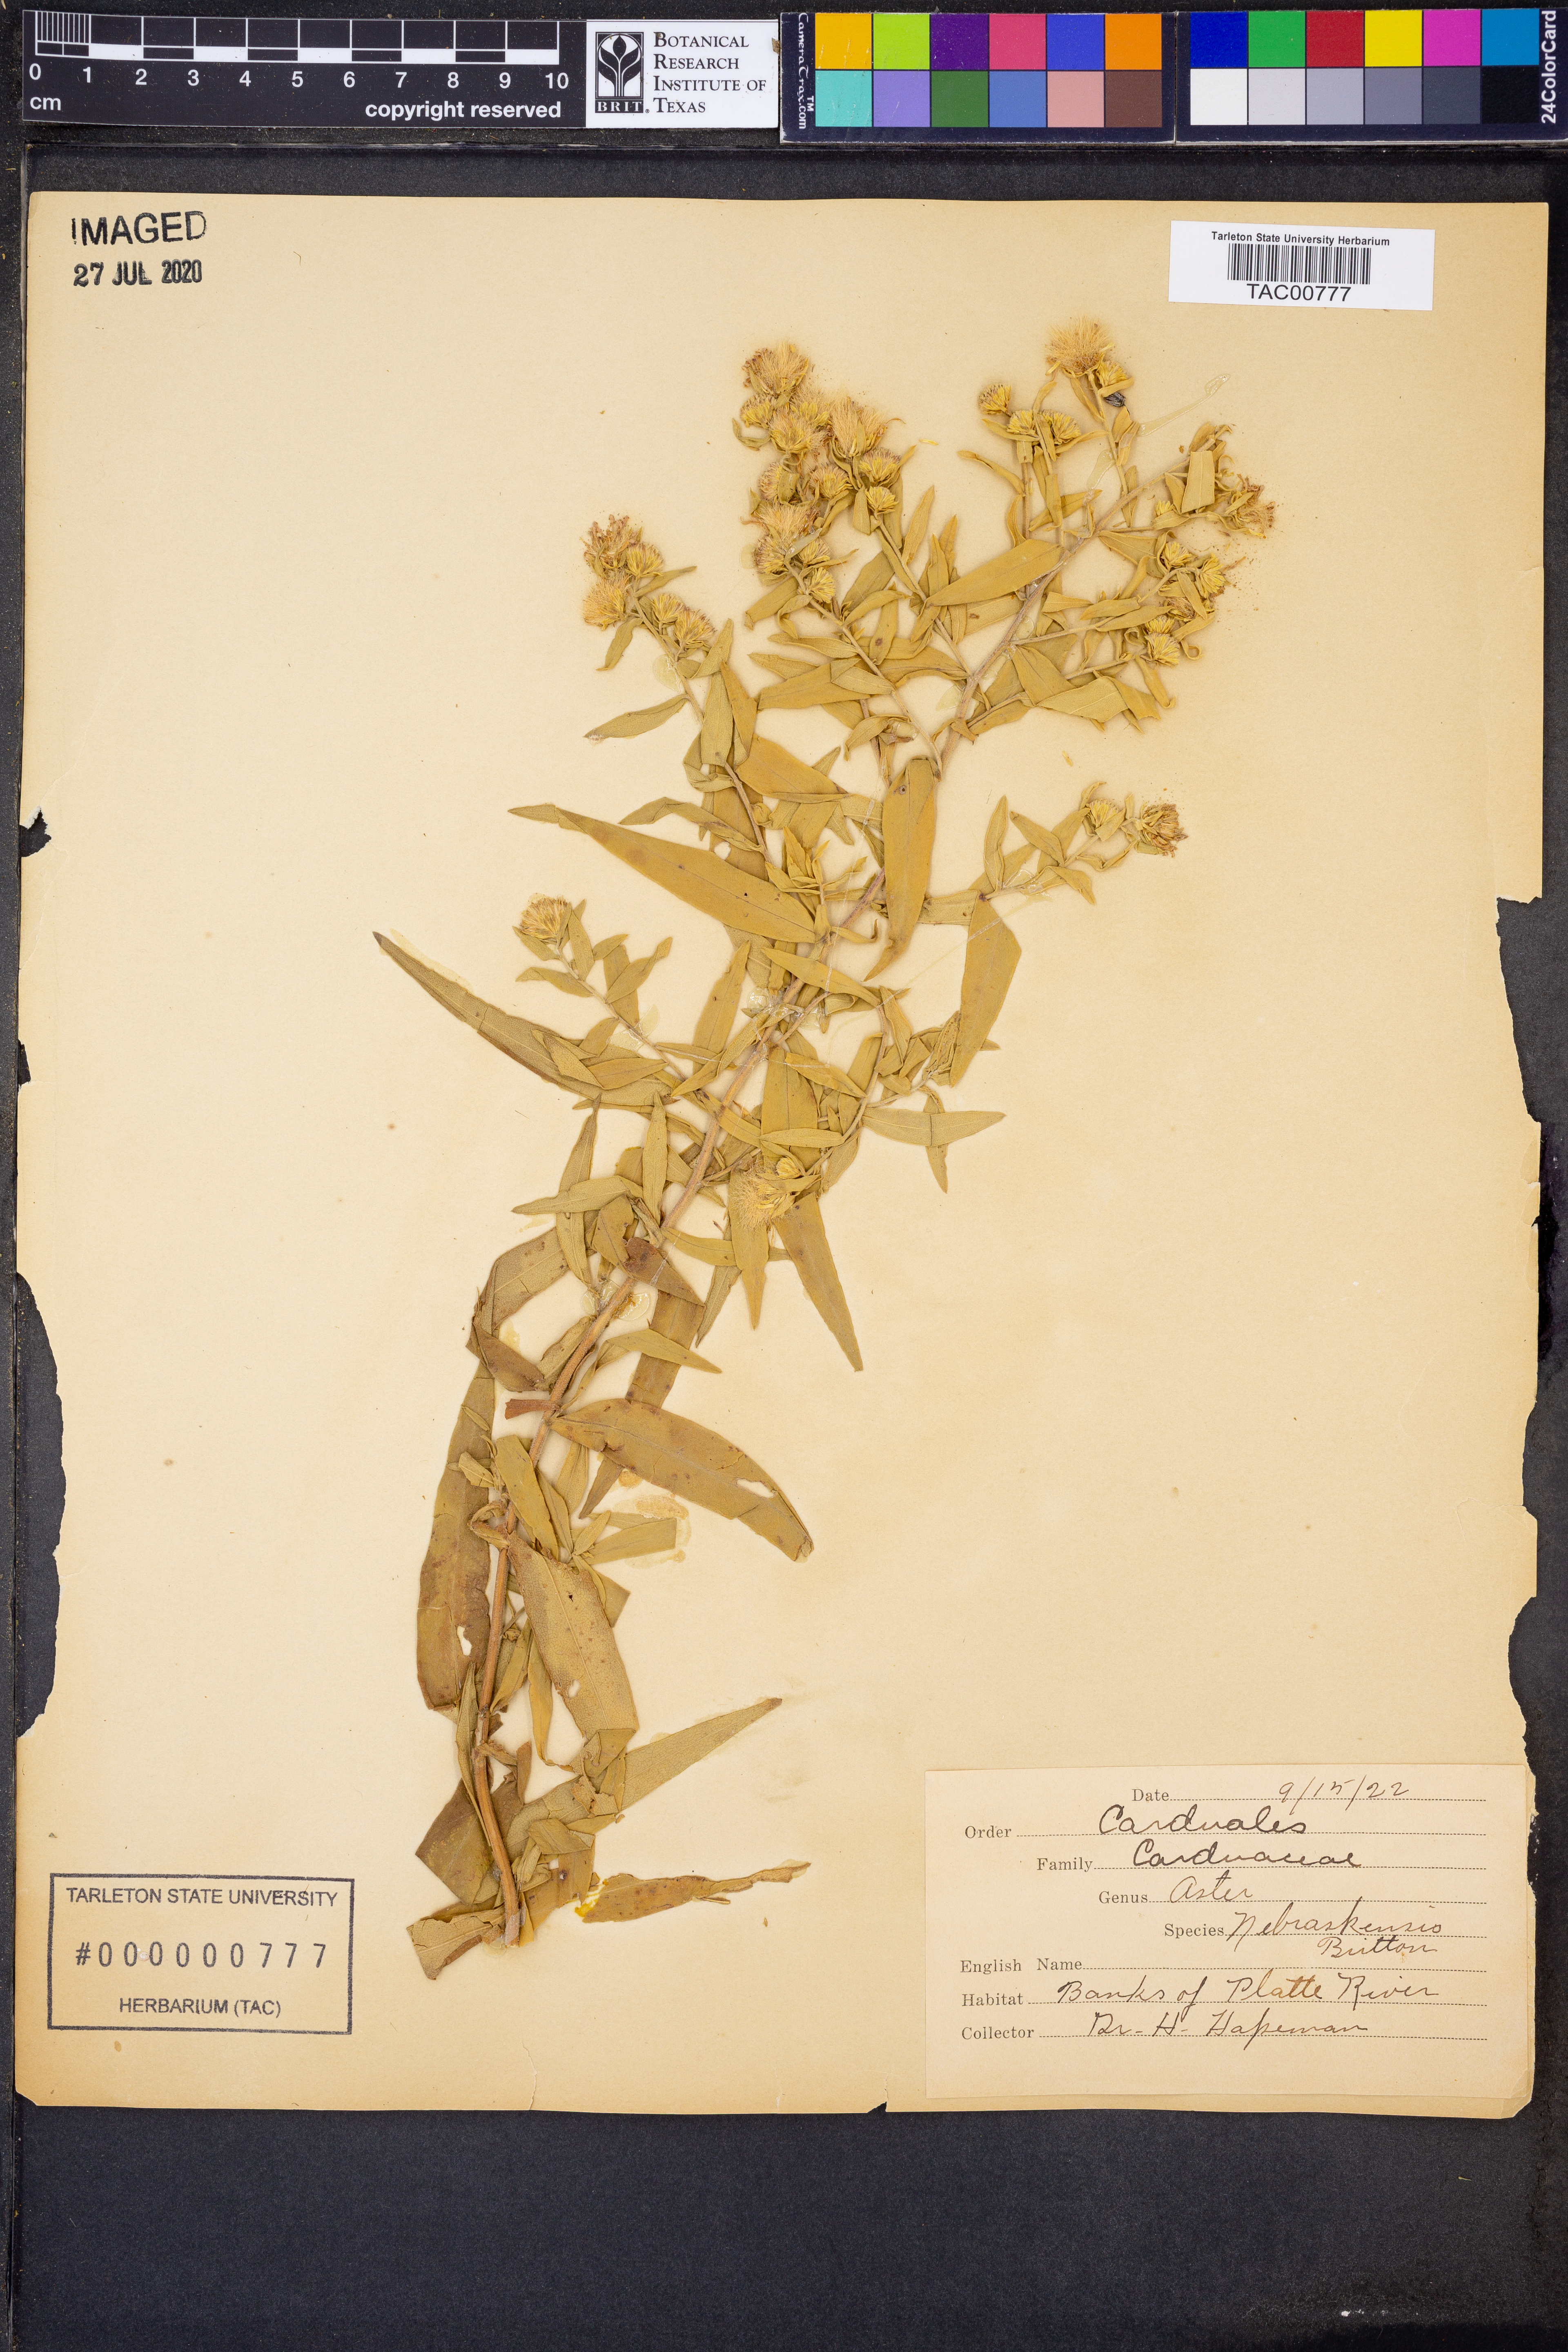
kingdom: Plantae
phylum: Tracheophyta
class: Magnoliopsida
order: Asterales
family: Asteraceae
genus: Symphyotrichum
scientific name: Symphyotrichum praealtum
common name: Willow aster
